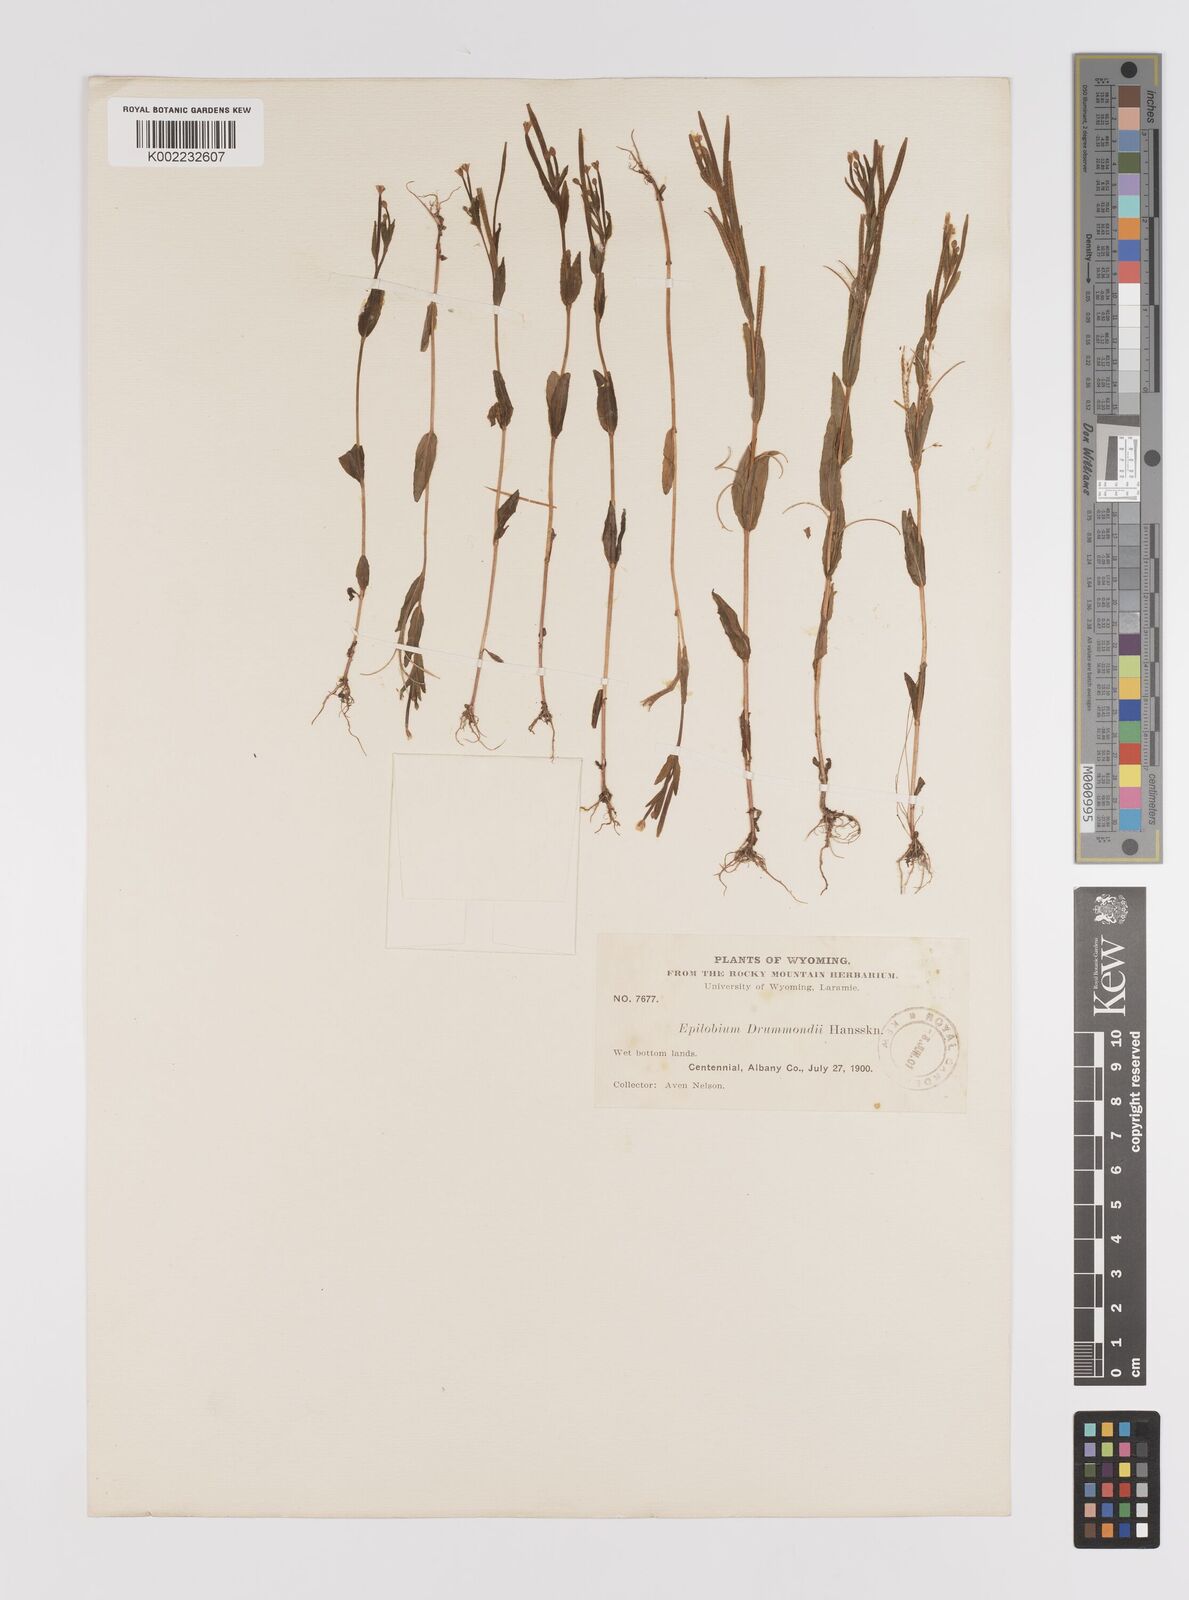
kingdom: Plantae
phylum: Tracheophyta
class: Magnoliopsida
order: Myrtales
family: Onagraceae
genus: Epilobium
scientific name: Epilobium hallianum
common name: Hall's willowherb
